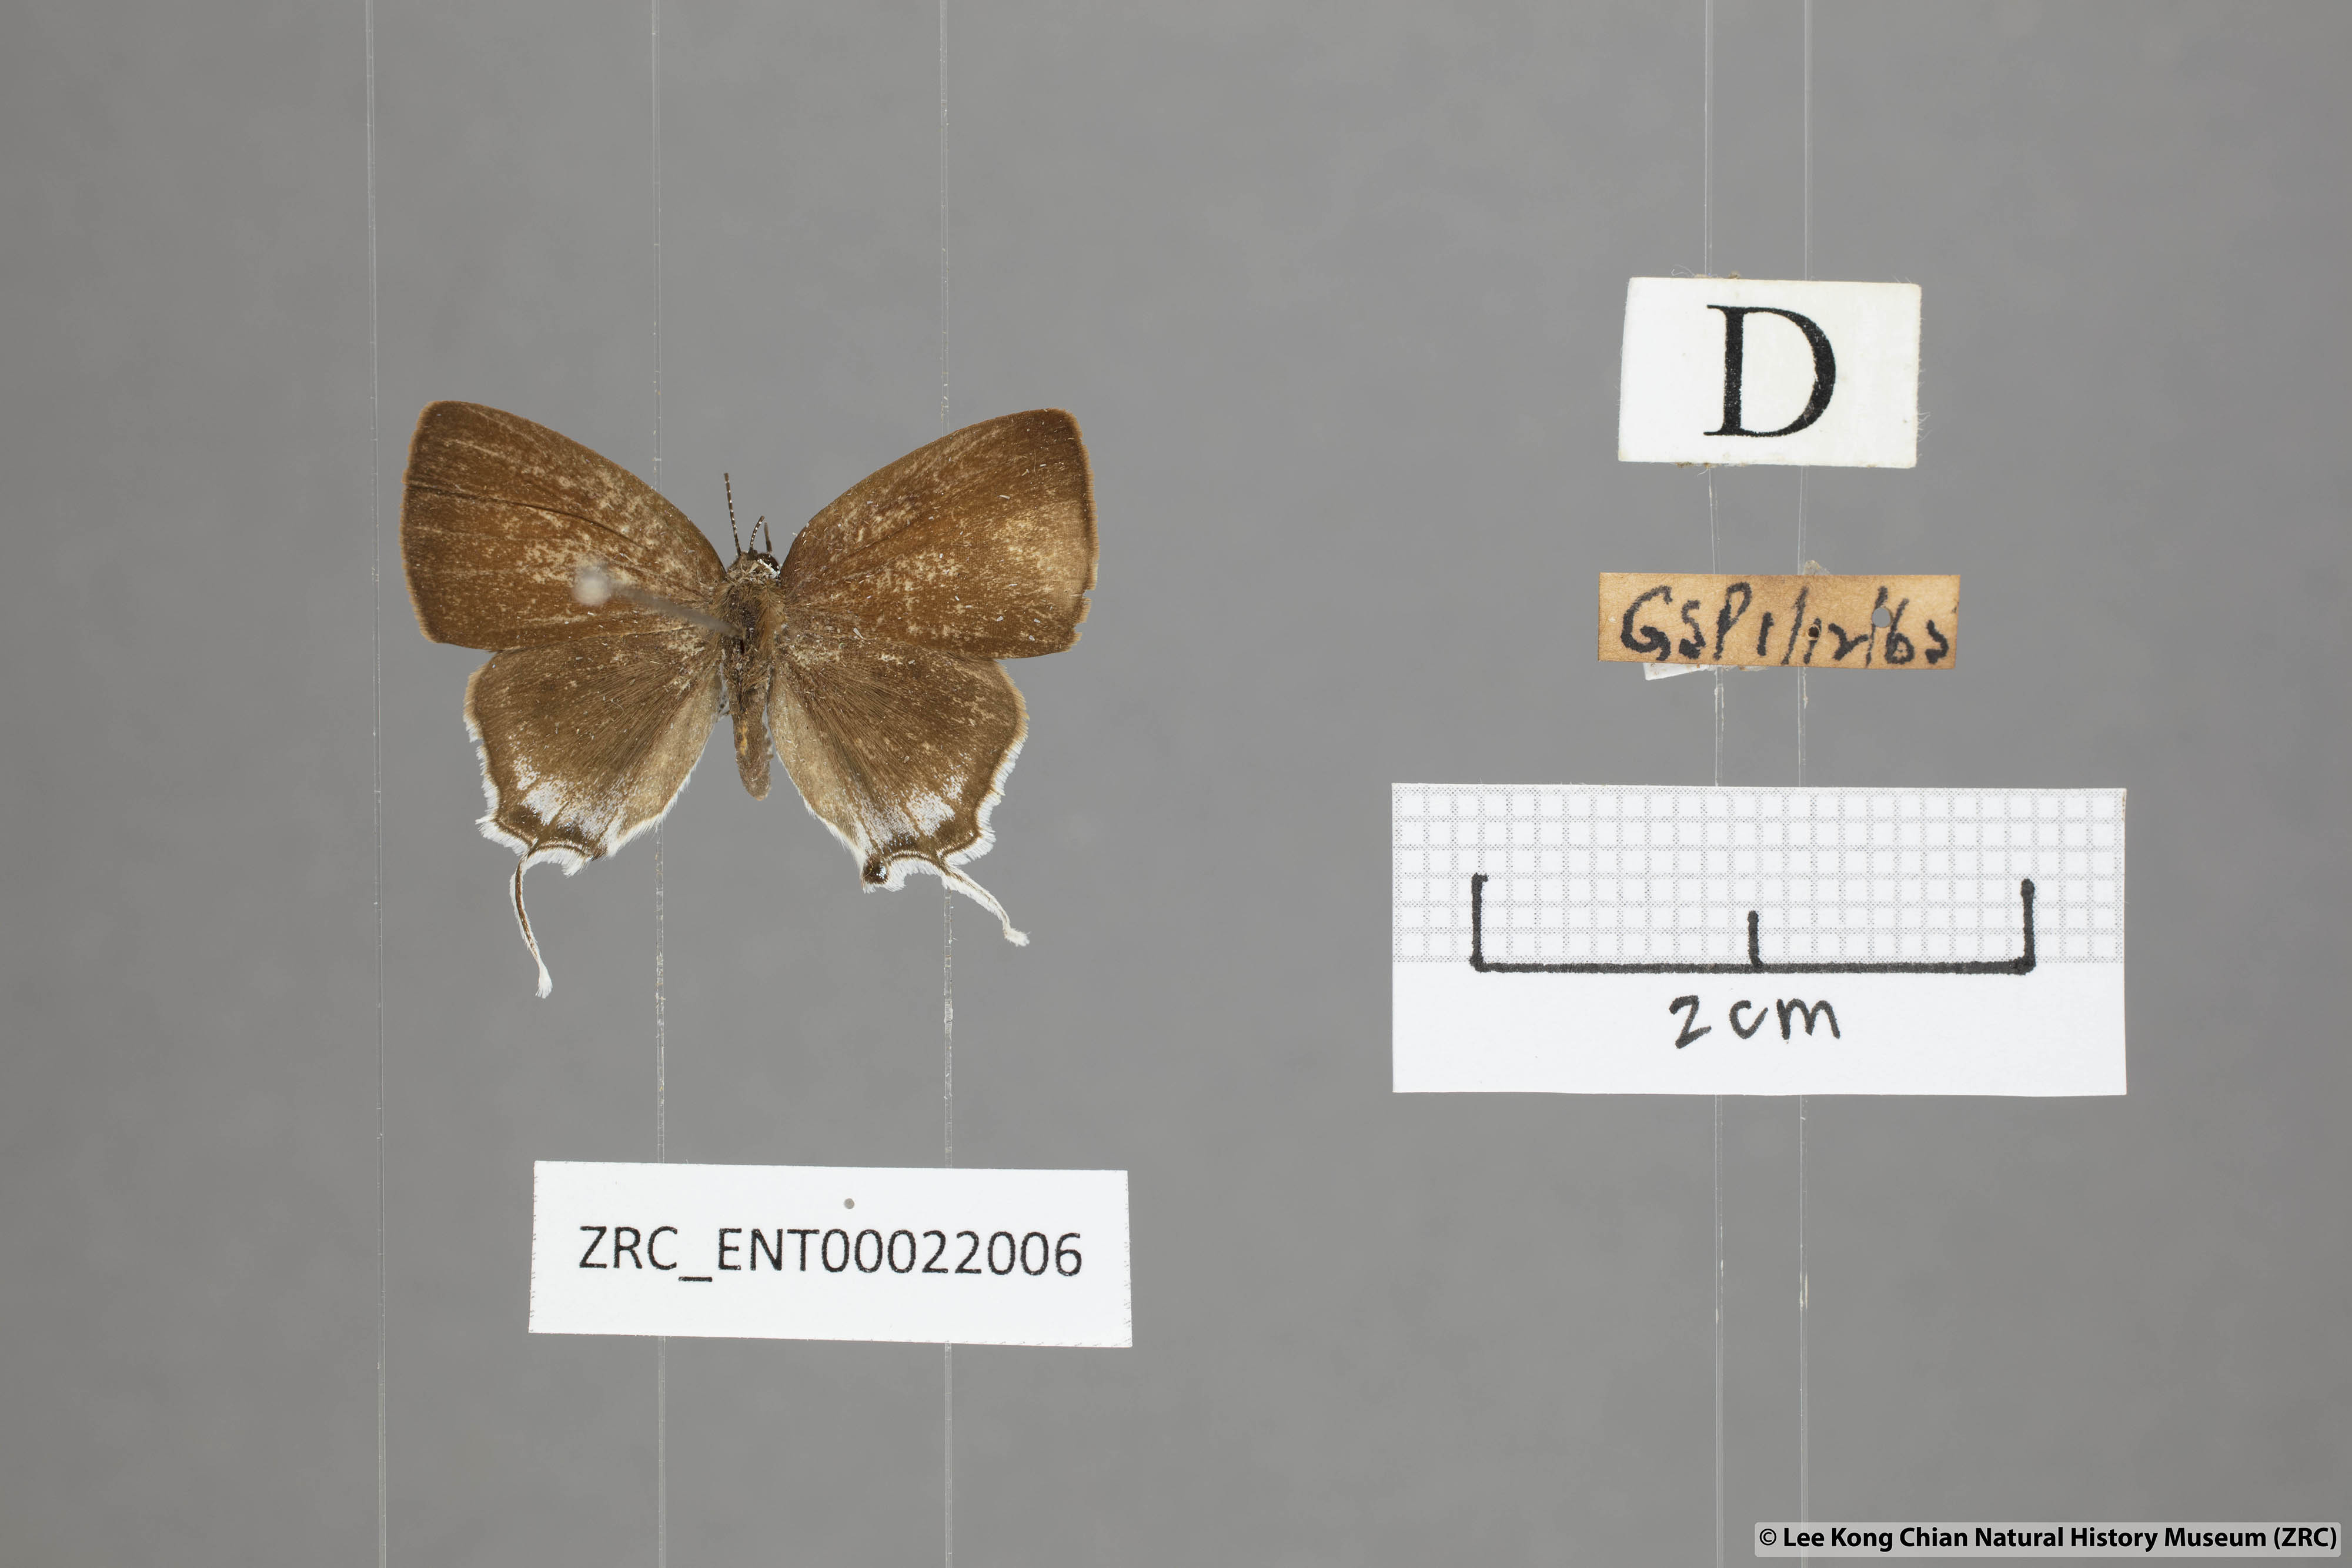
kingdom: Animalia
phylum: Arthropoda
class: Insecta
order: Lepidoptera
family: Lycaenidae
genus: Sinthusa
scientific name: Sinthusa malika
